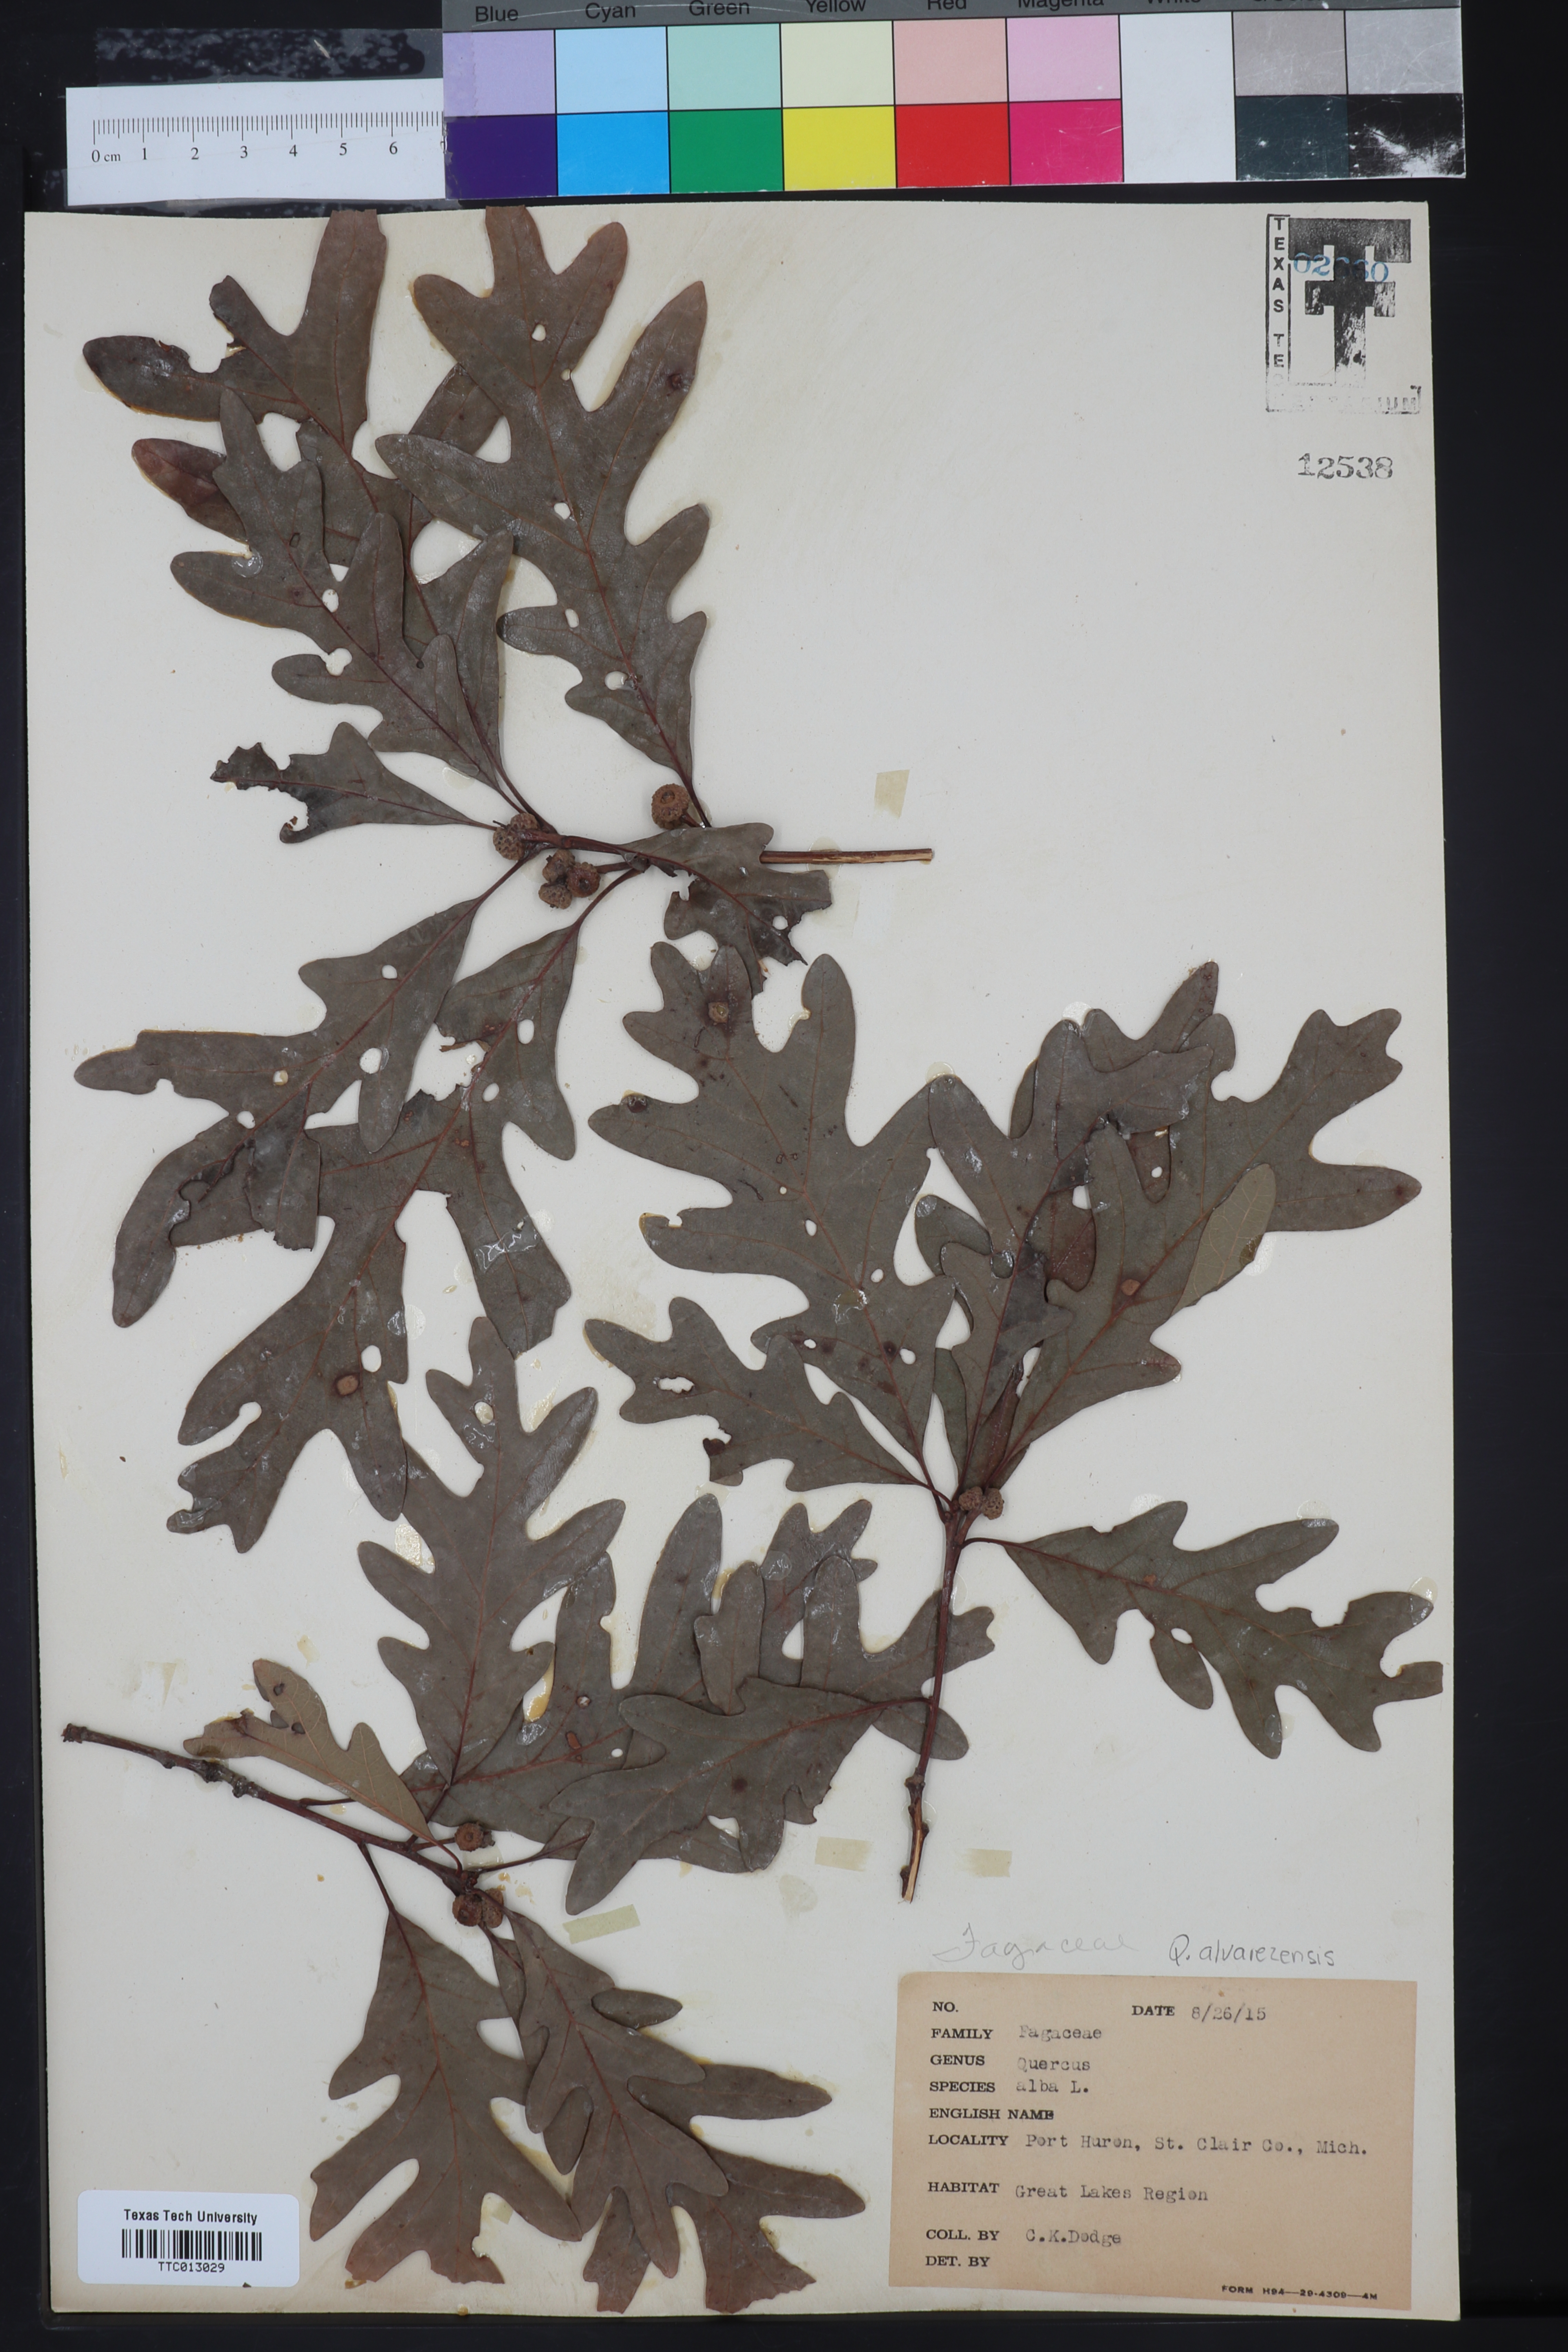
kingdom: Plantae
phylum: Tracheophyta
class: Magnoliopsida
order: Fagales
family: Fagaceae
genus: Quercus
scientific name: Quercus alba
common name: White oak
